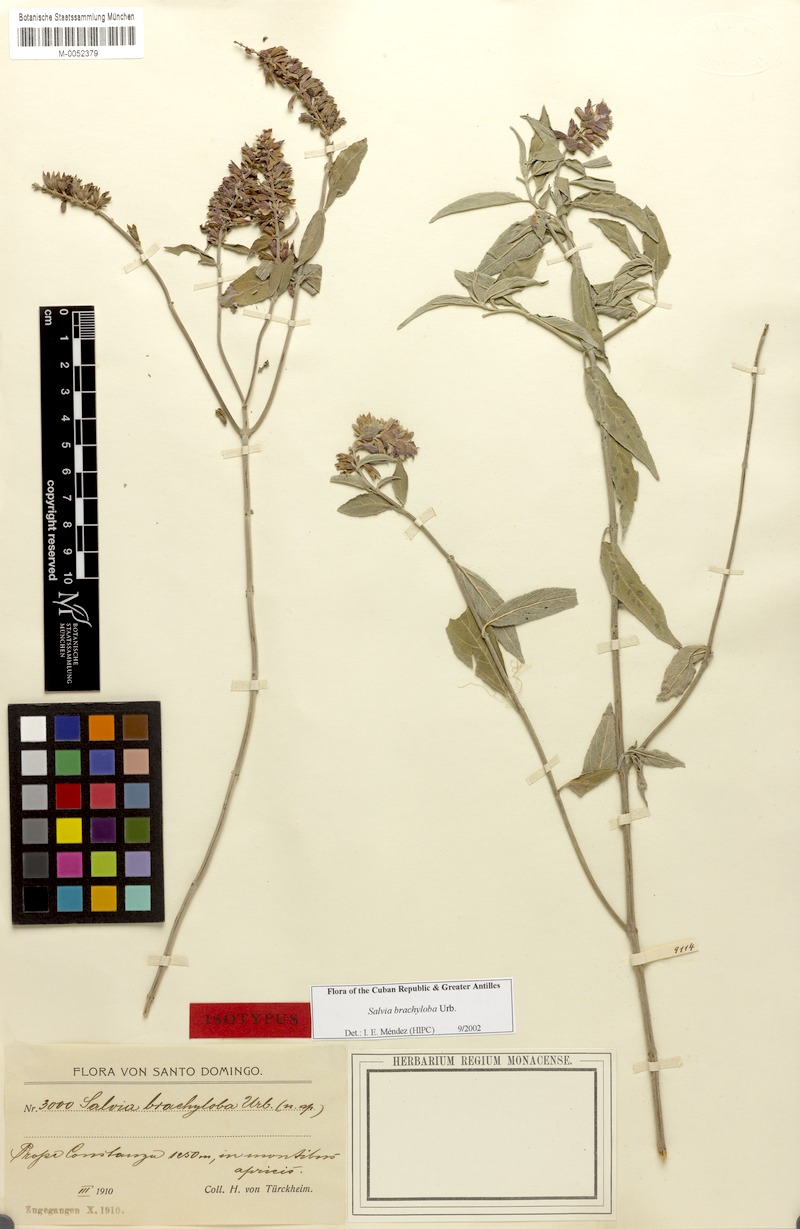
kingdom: Plantae
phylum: Tracheophyta
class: Magnoliopsida
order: Lamiales
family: Lamiaceae
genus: Salvia
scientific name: Salvia brachyloba
